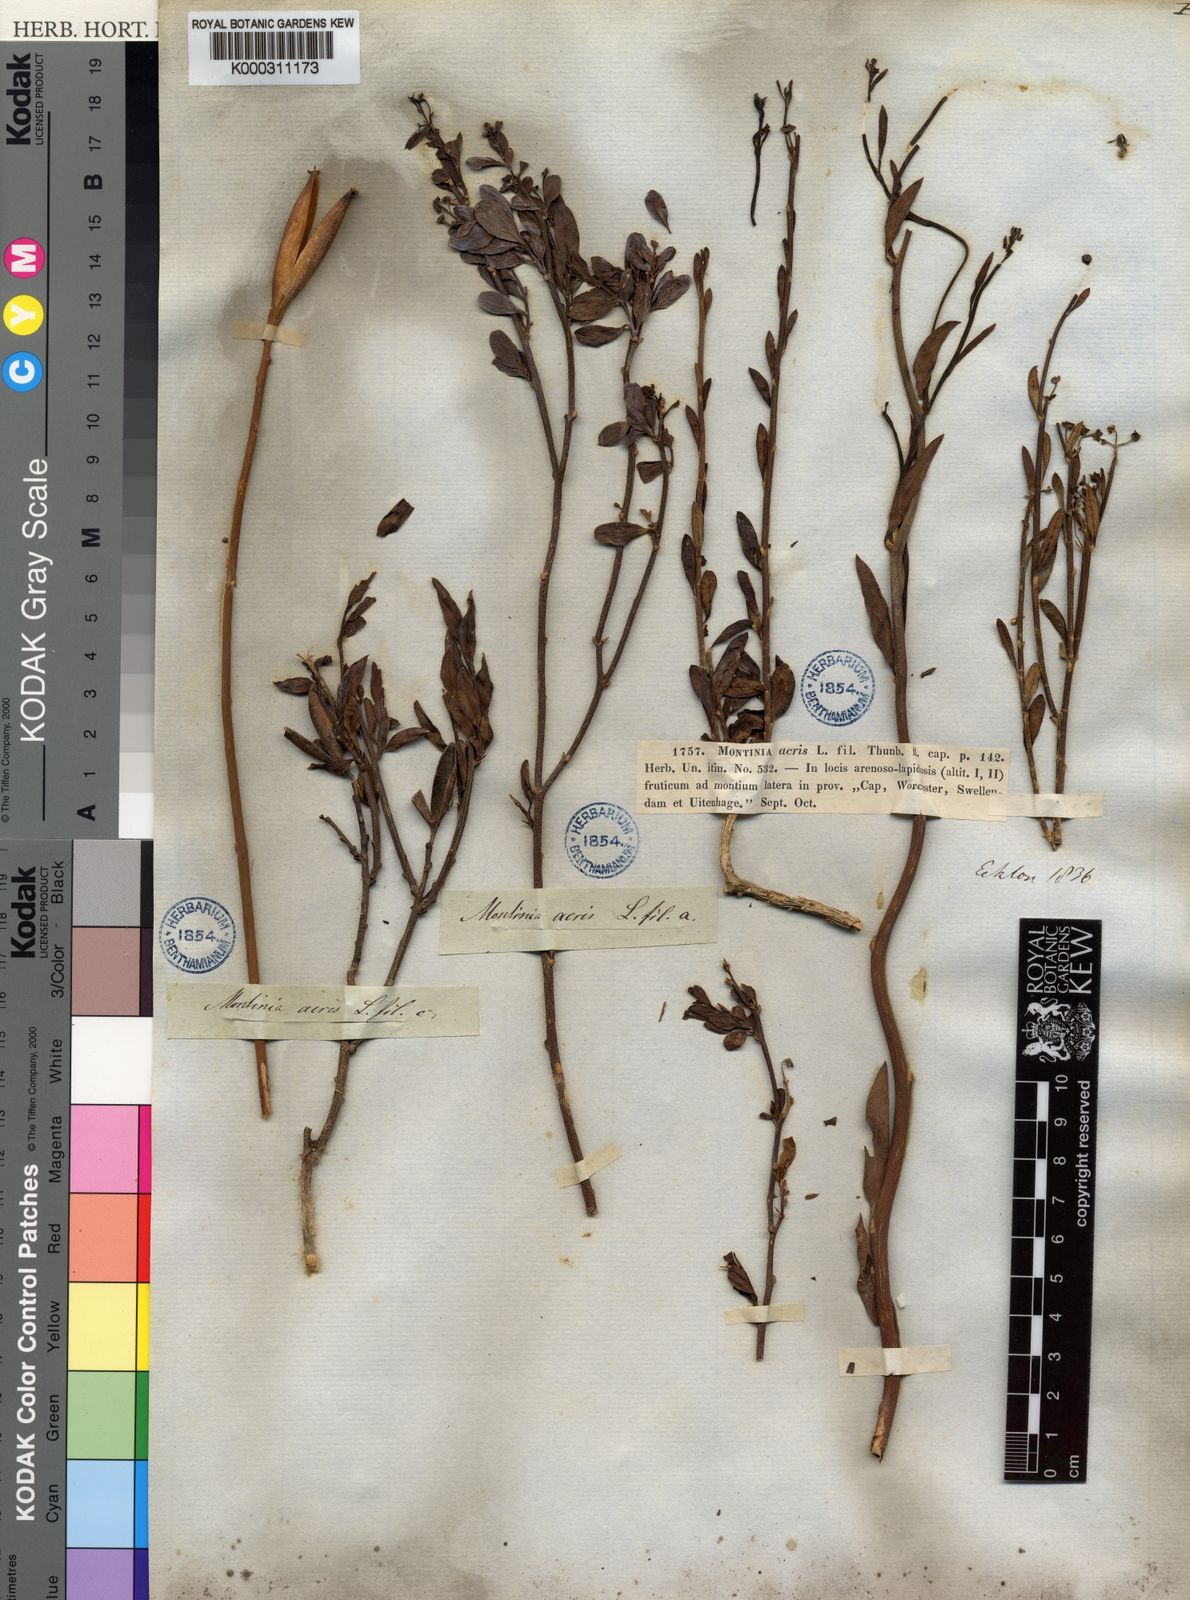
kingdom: Plantae
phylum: Tracheophyta
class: Magnoliopsida
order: Solanales
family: Montiniaceae
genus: Montinia
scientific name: Montinia caryophyllacea
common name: Wild clove-bush
